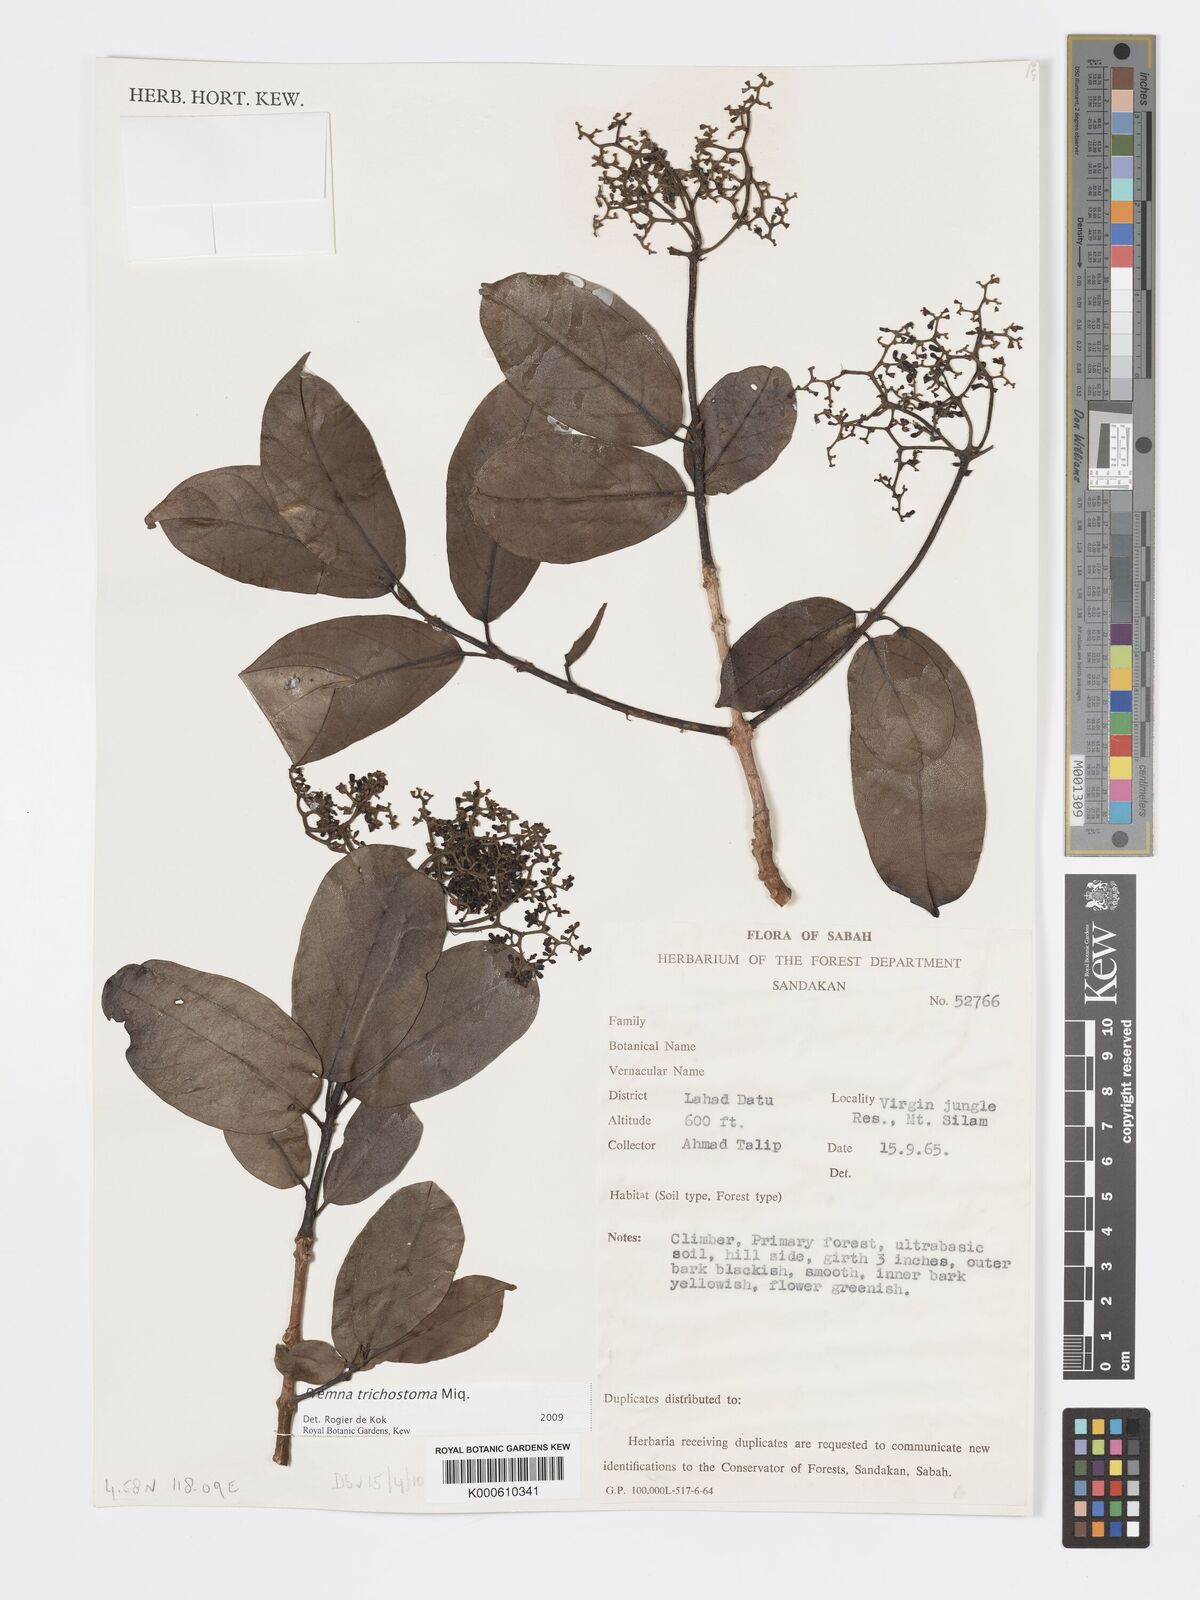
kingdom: Plantae
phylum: Tracheophyta
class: Magnoliopsida
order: Lamiales
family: Lamiaceae
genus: Premna
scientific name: Premna
